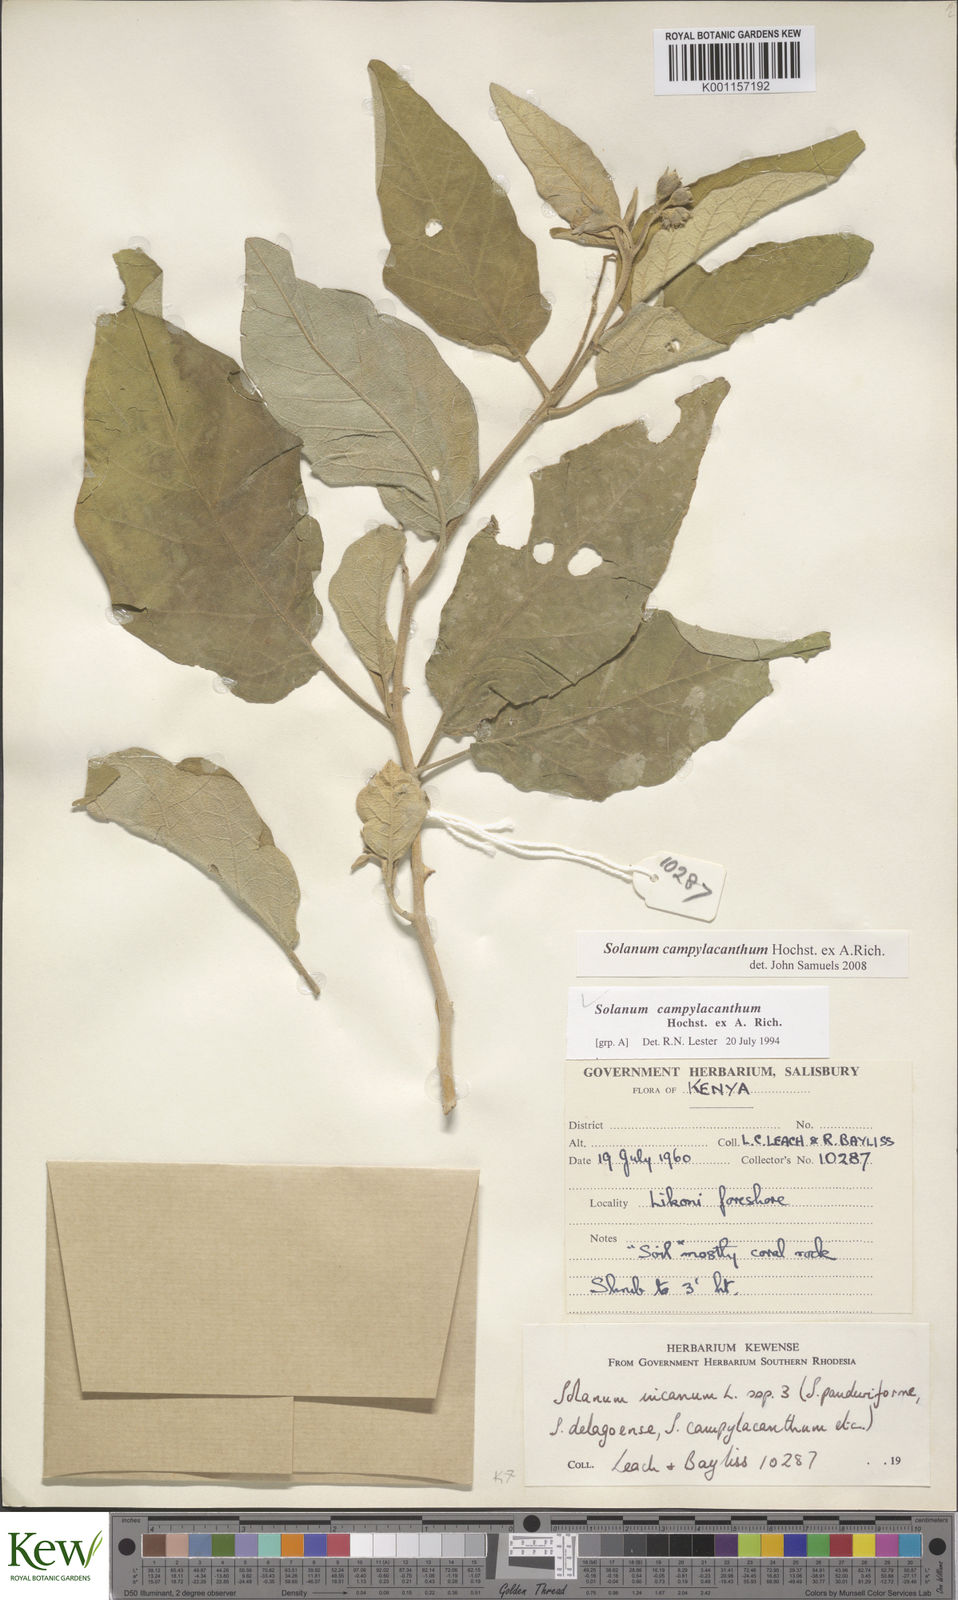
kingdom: Plantae
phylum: Tracheophyta
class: Magnoliopsida
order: Solanales
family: Solanaceae
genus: Solanum
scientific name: Solanum campylacanthum
